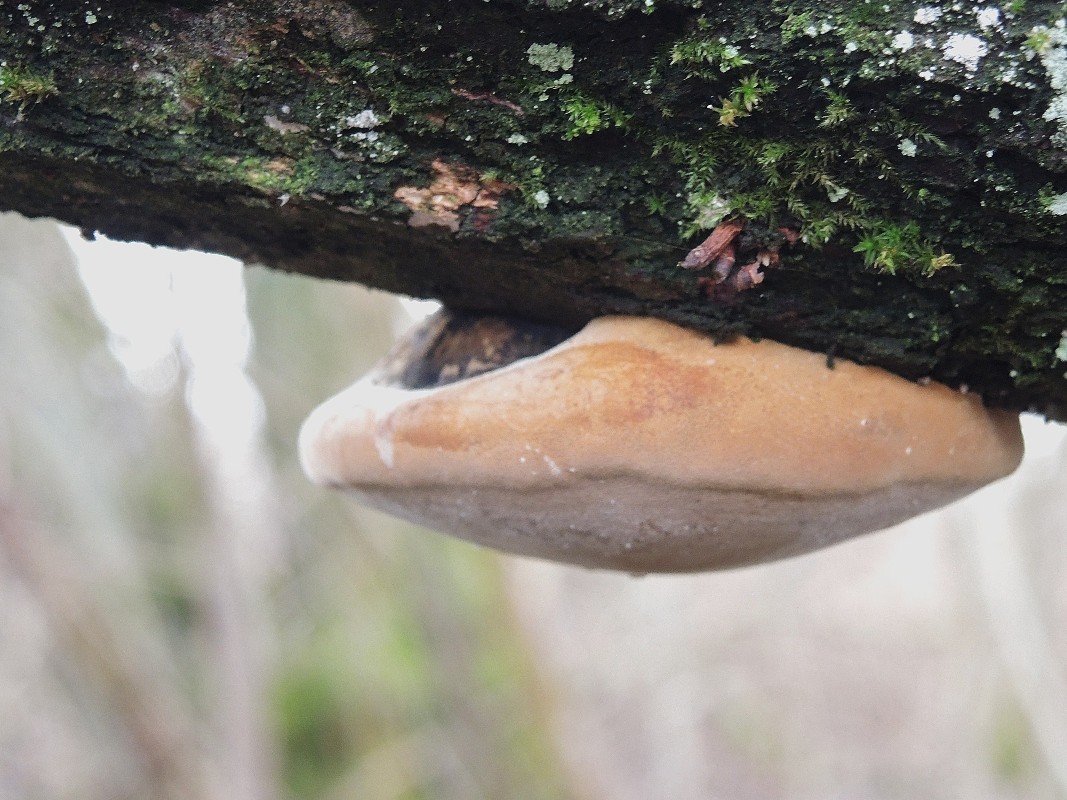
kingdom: Fungi
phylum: Basidiomycota
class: Agaricomycetes
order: Hymenochaetales
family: Hymenochaetaceae
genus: Phellinus
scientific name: Phellinus igniarius
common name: almindelig ildporesvamp
